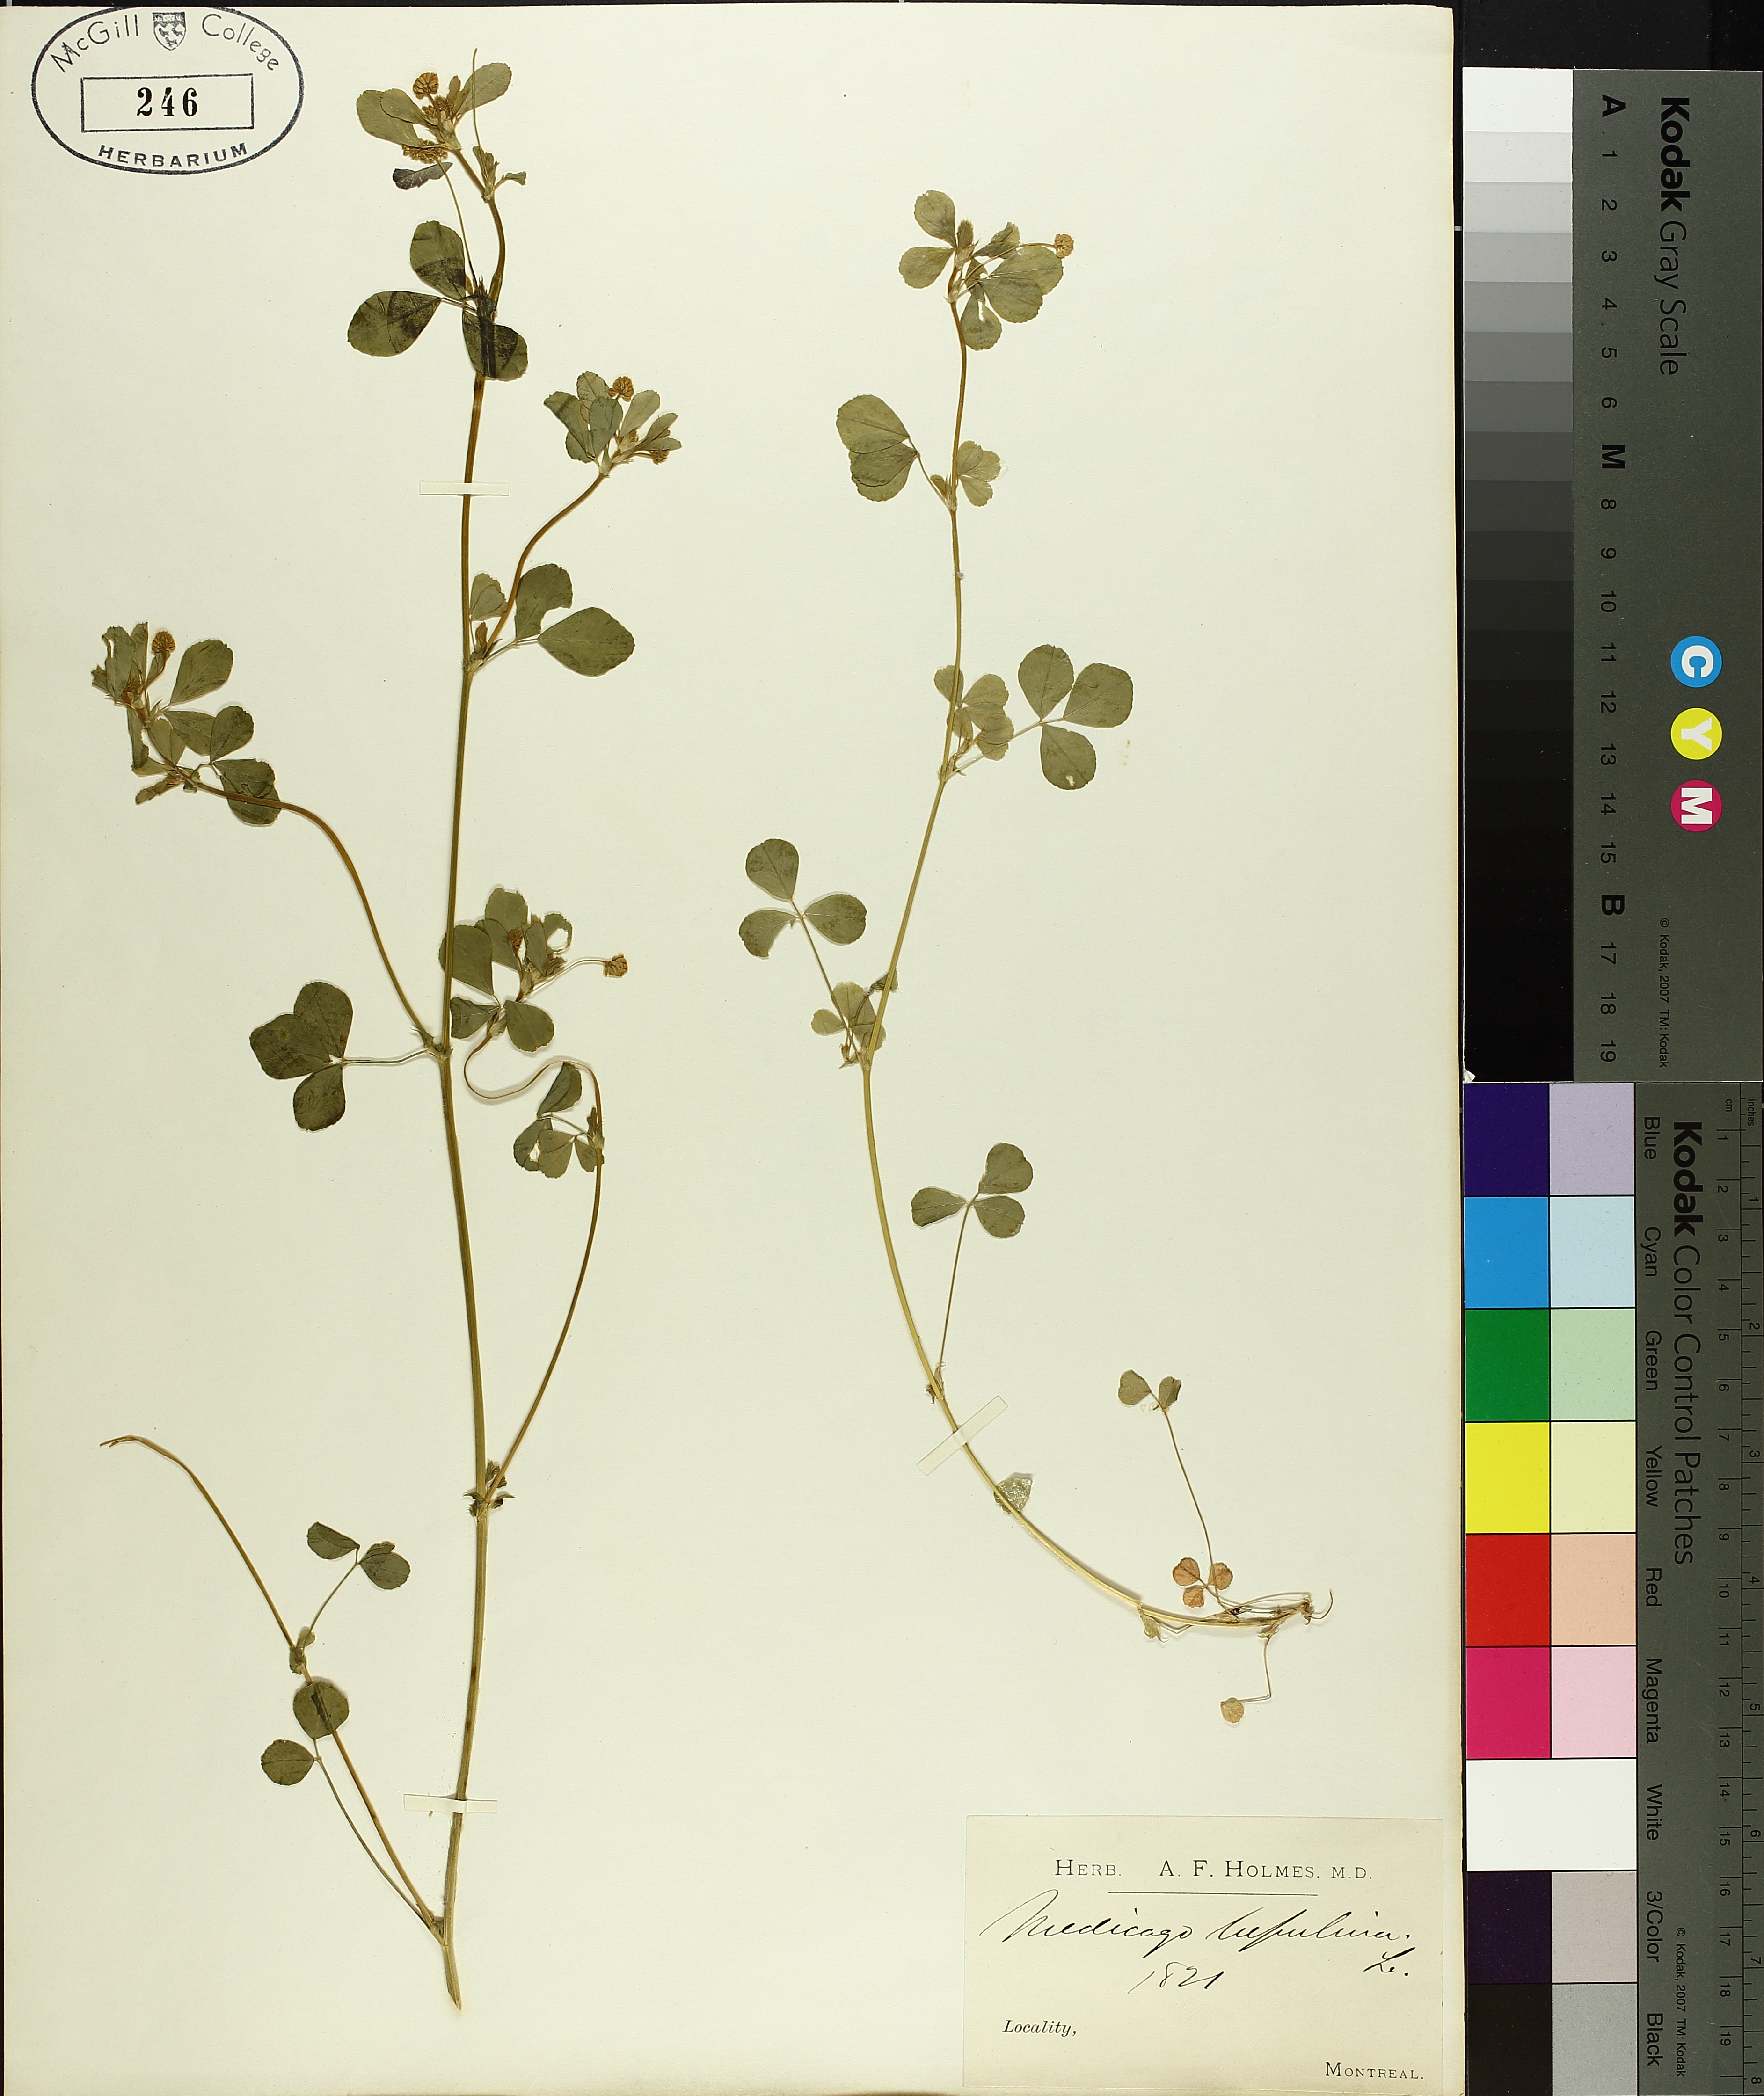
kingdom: Plantae
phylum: Tracheophyta
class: Magnoliopsida
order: Fabales
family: Fabaceae
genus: Medicago
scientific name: Medicago lupulina
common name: Black medick
